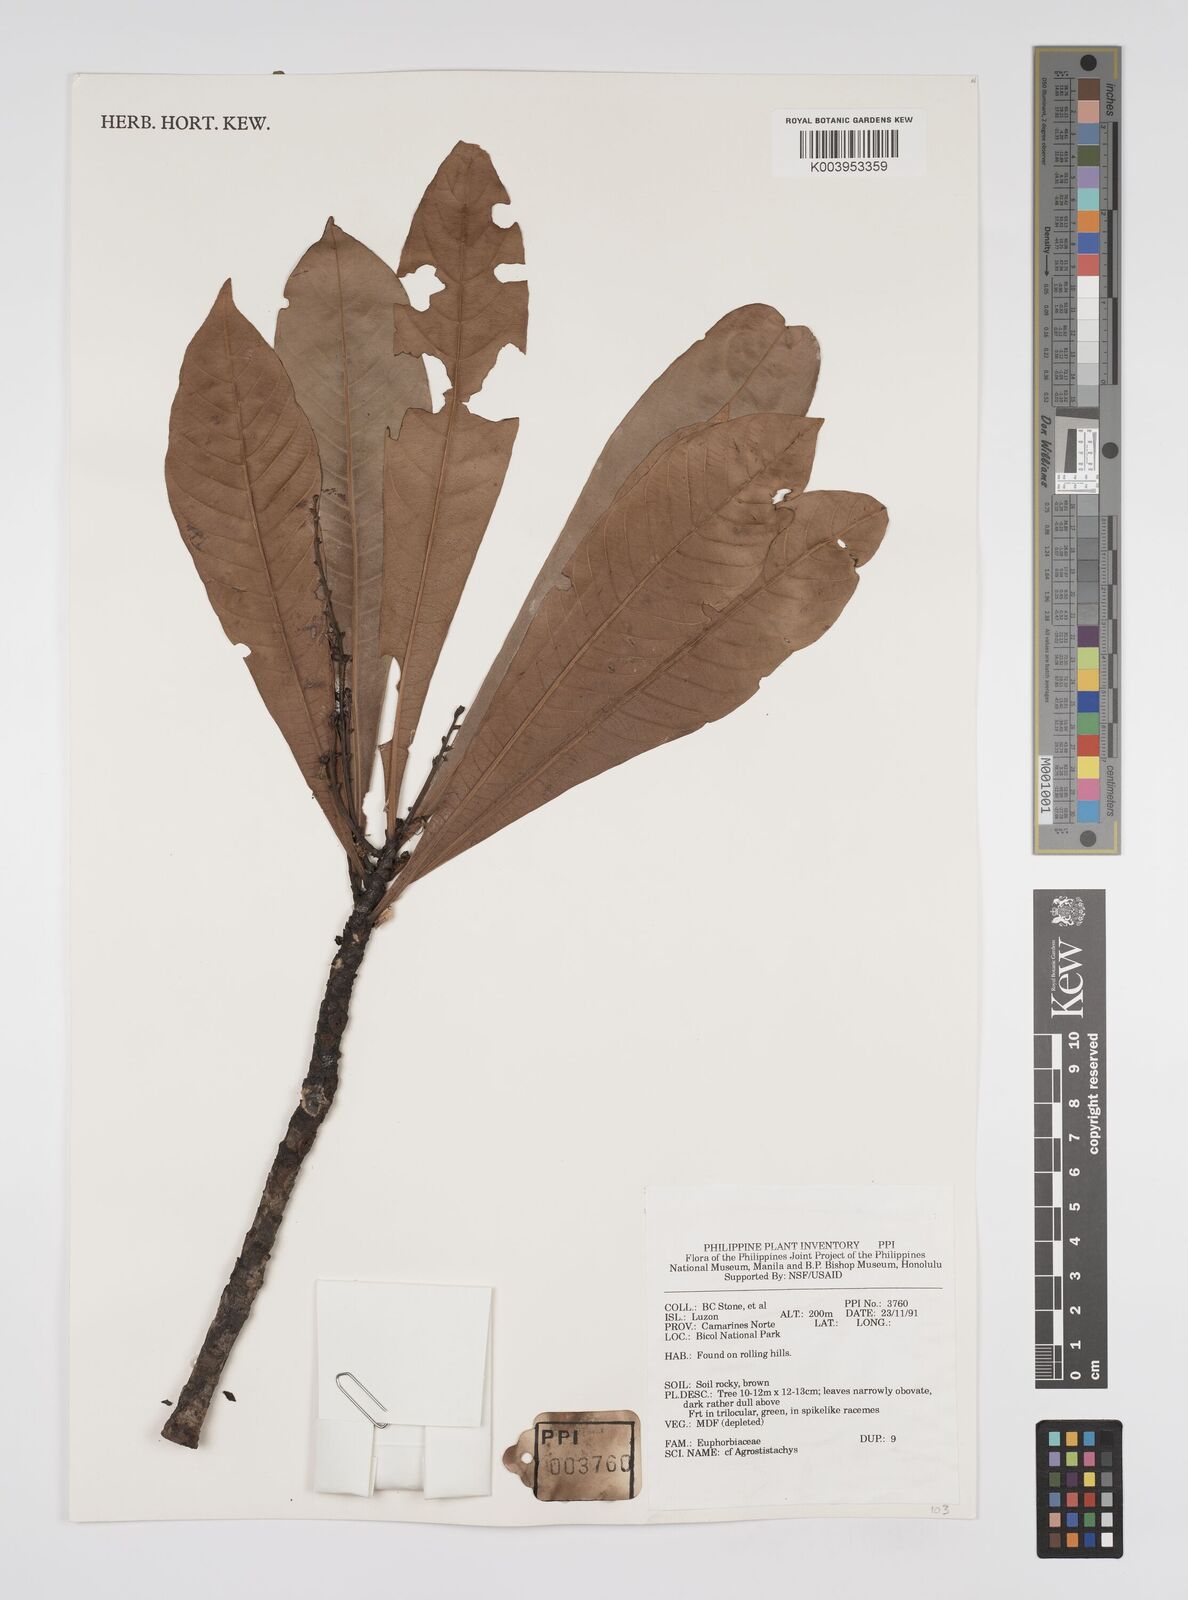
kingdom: Plantae
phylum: Tracheophyta
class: Magnoliopsida
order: Malpighiales
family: Euphorbiaceae
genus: Agrostistachys
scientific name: Agrostistachys
